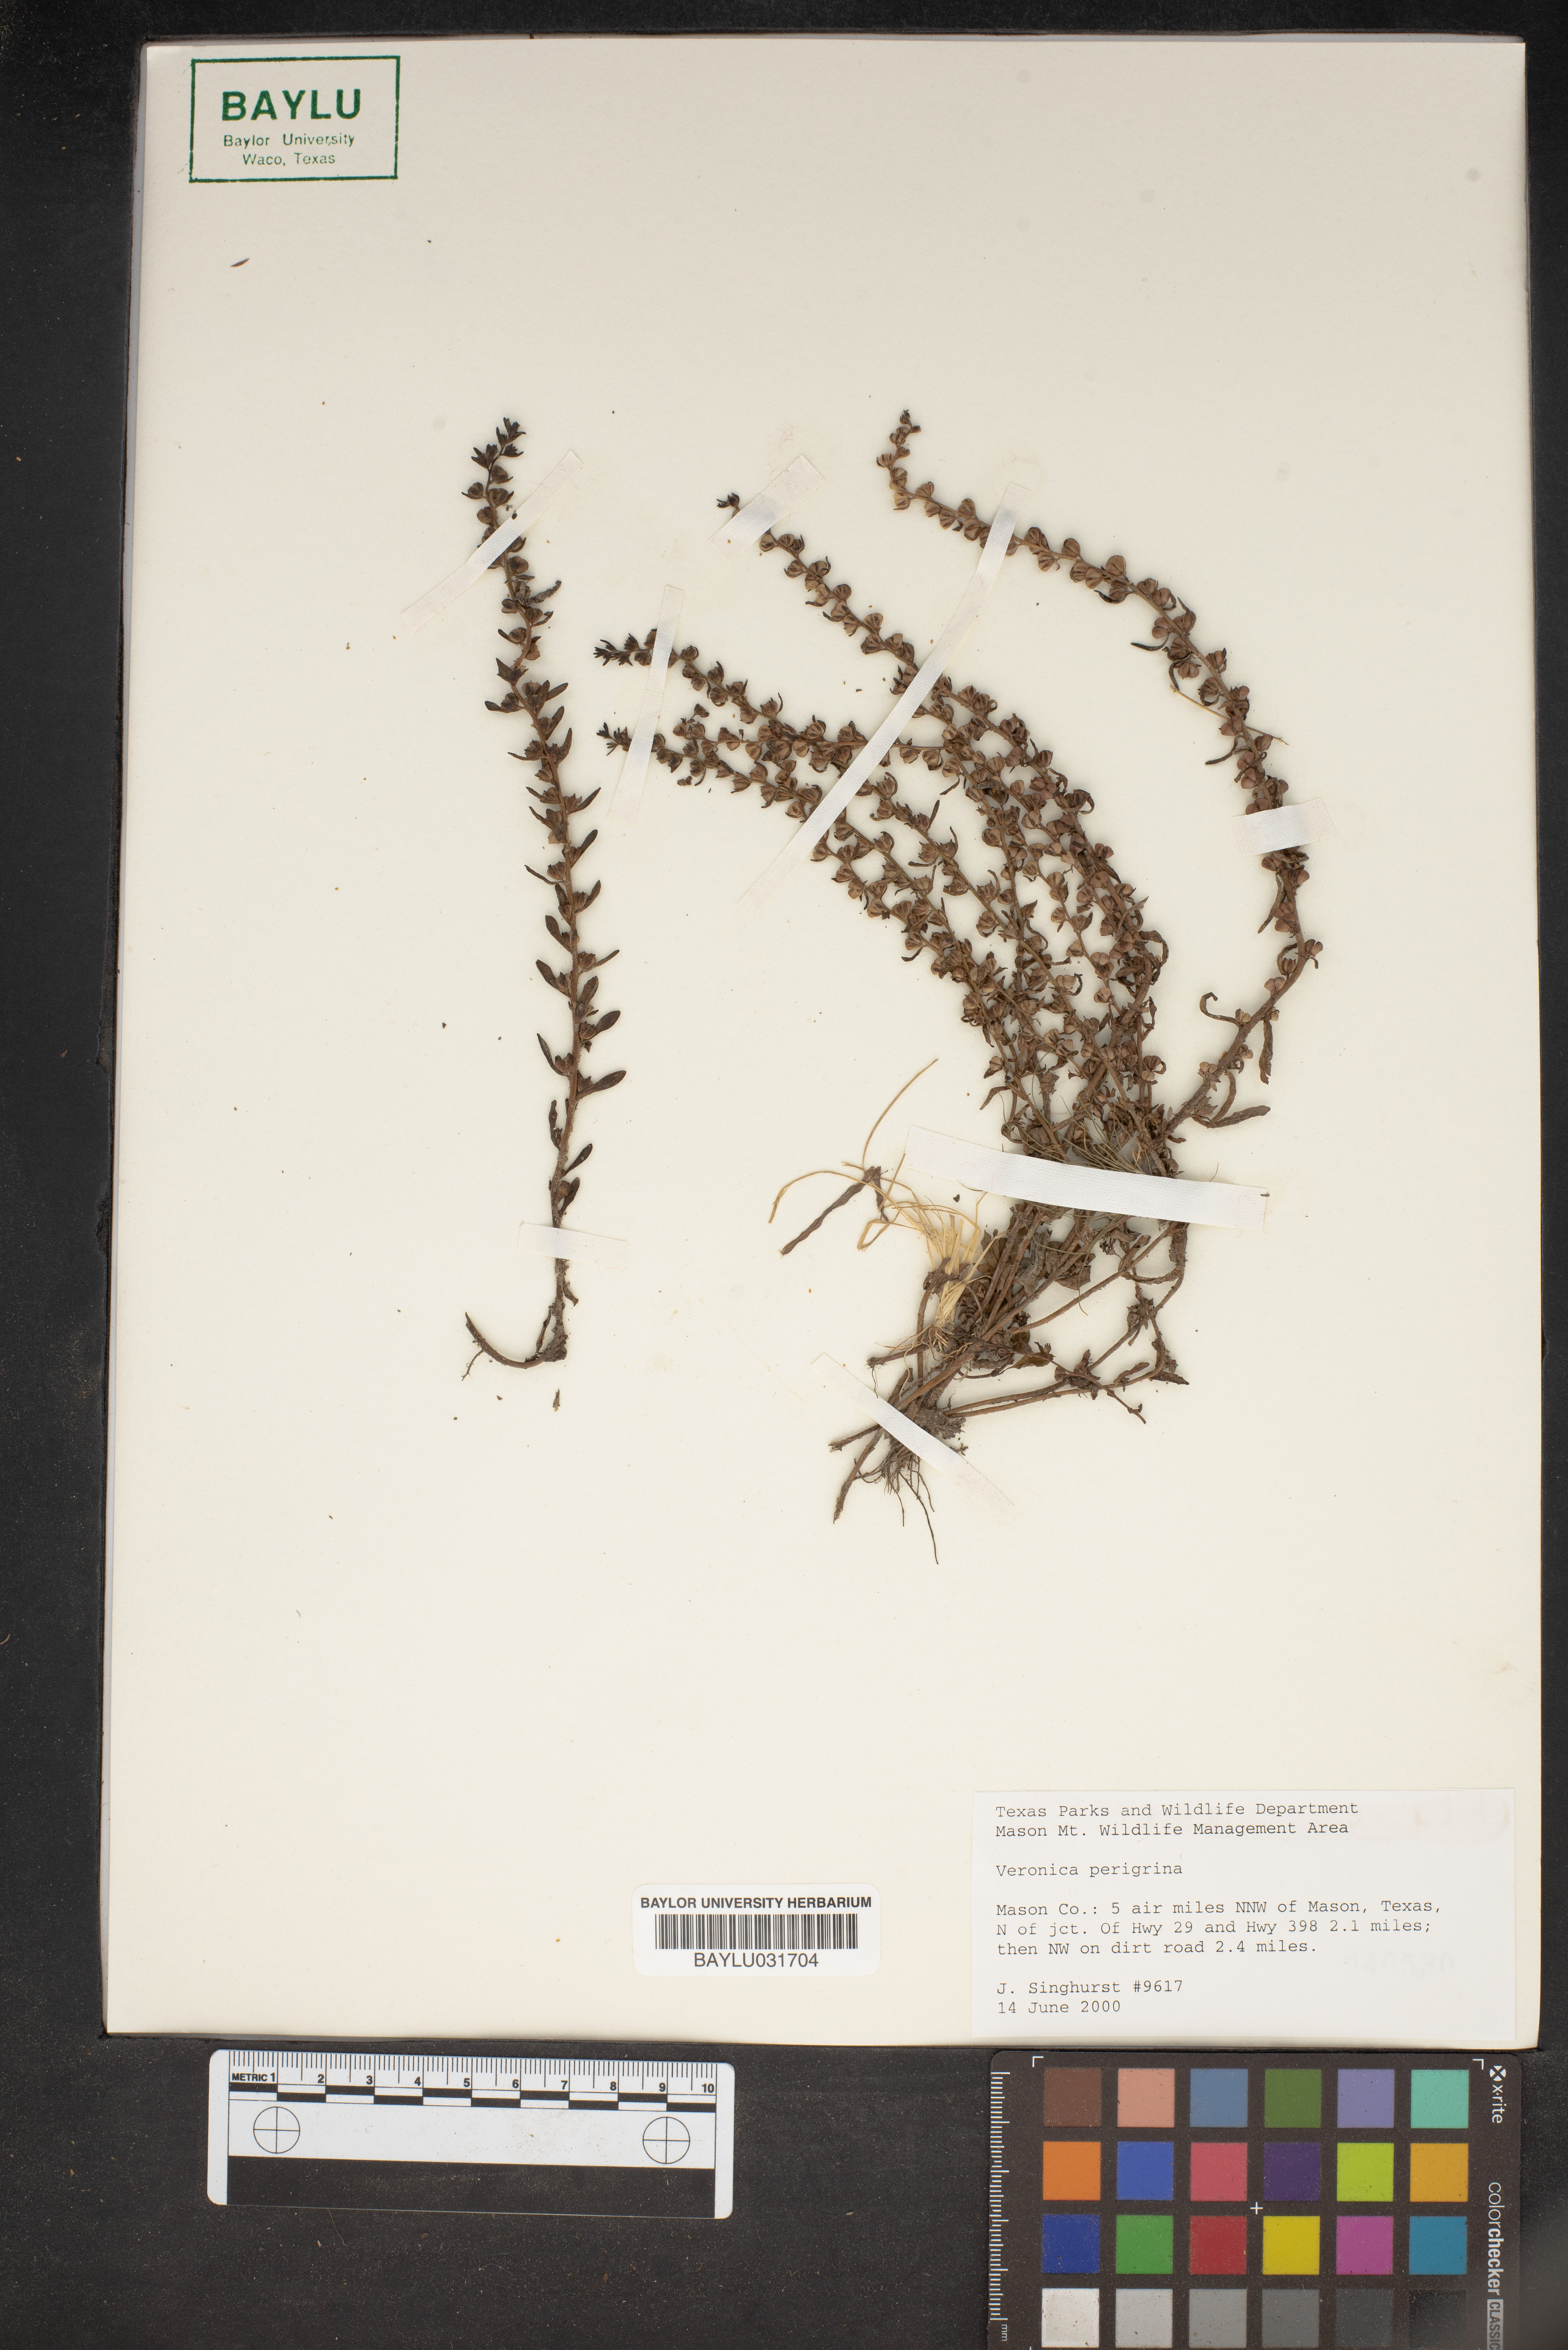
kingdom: Plantae
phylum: Tracheophyta
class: Magnoliopsida
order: Lamiales
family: Plantaginaceae
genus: Veronica
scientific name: Veronica peregrina
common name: Neckweed
